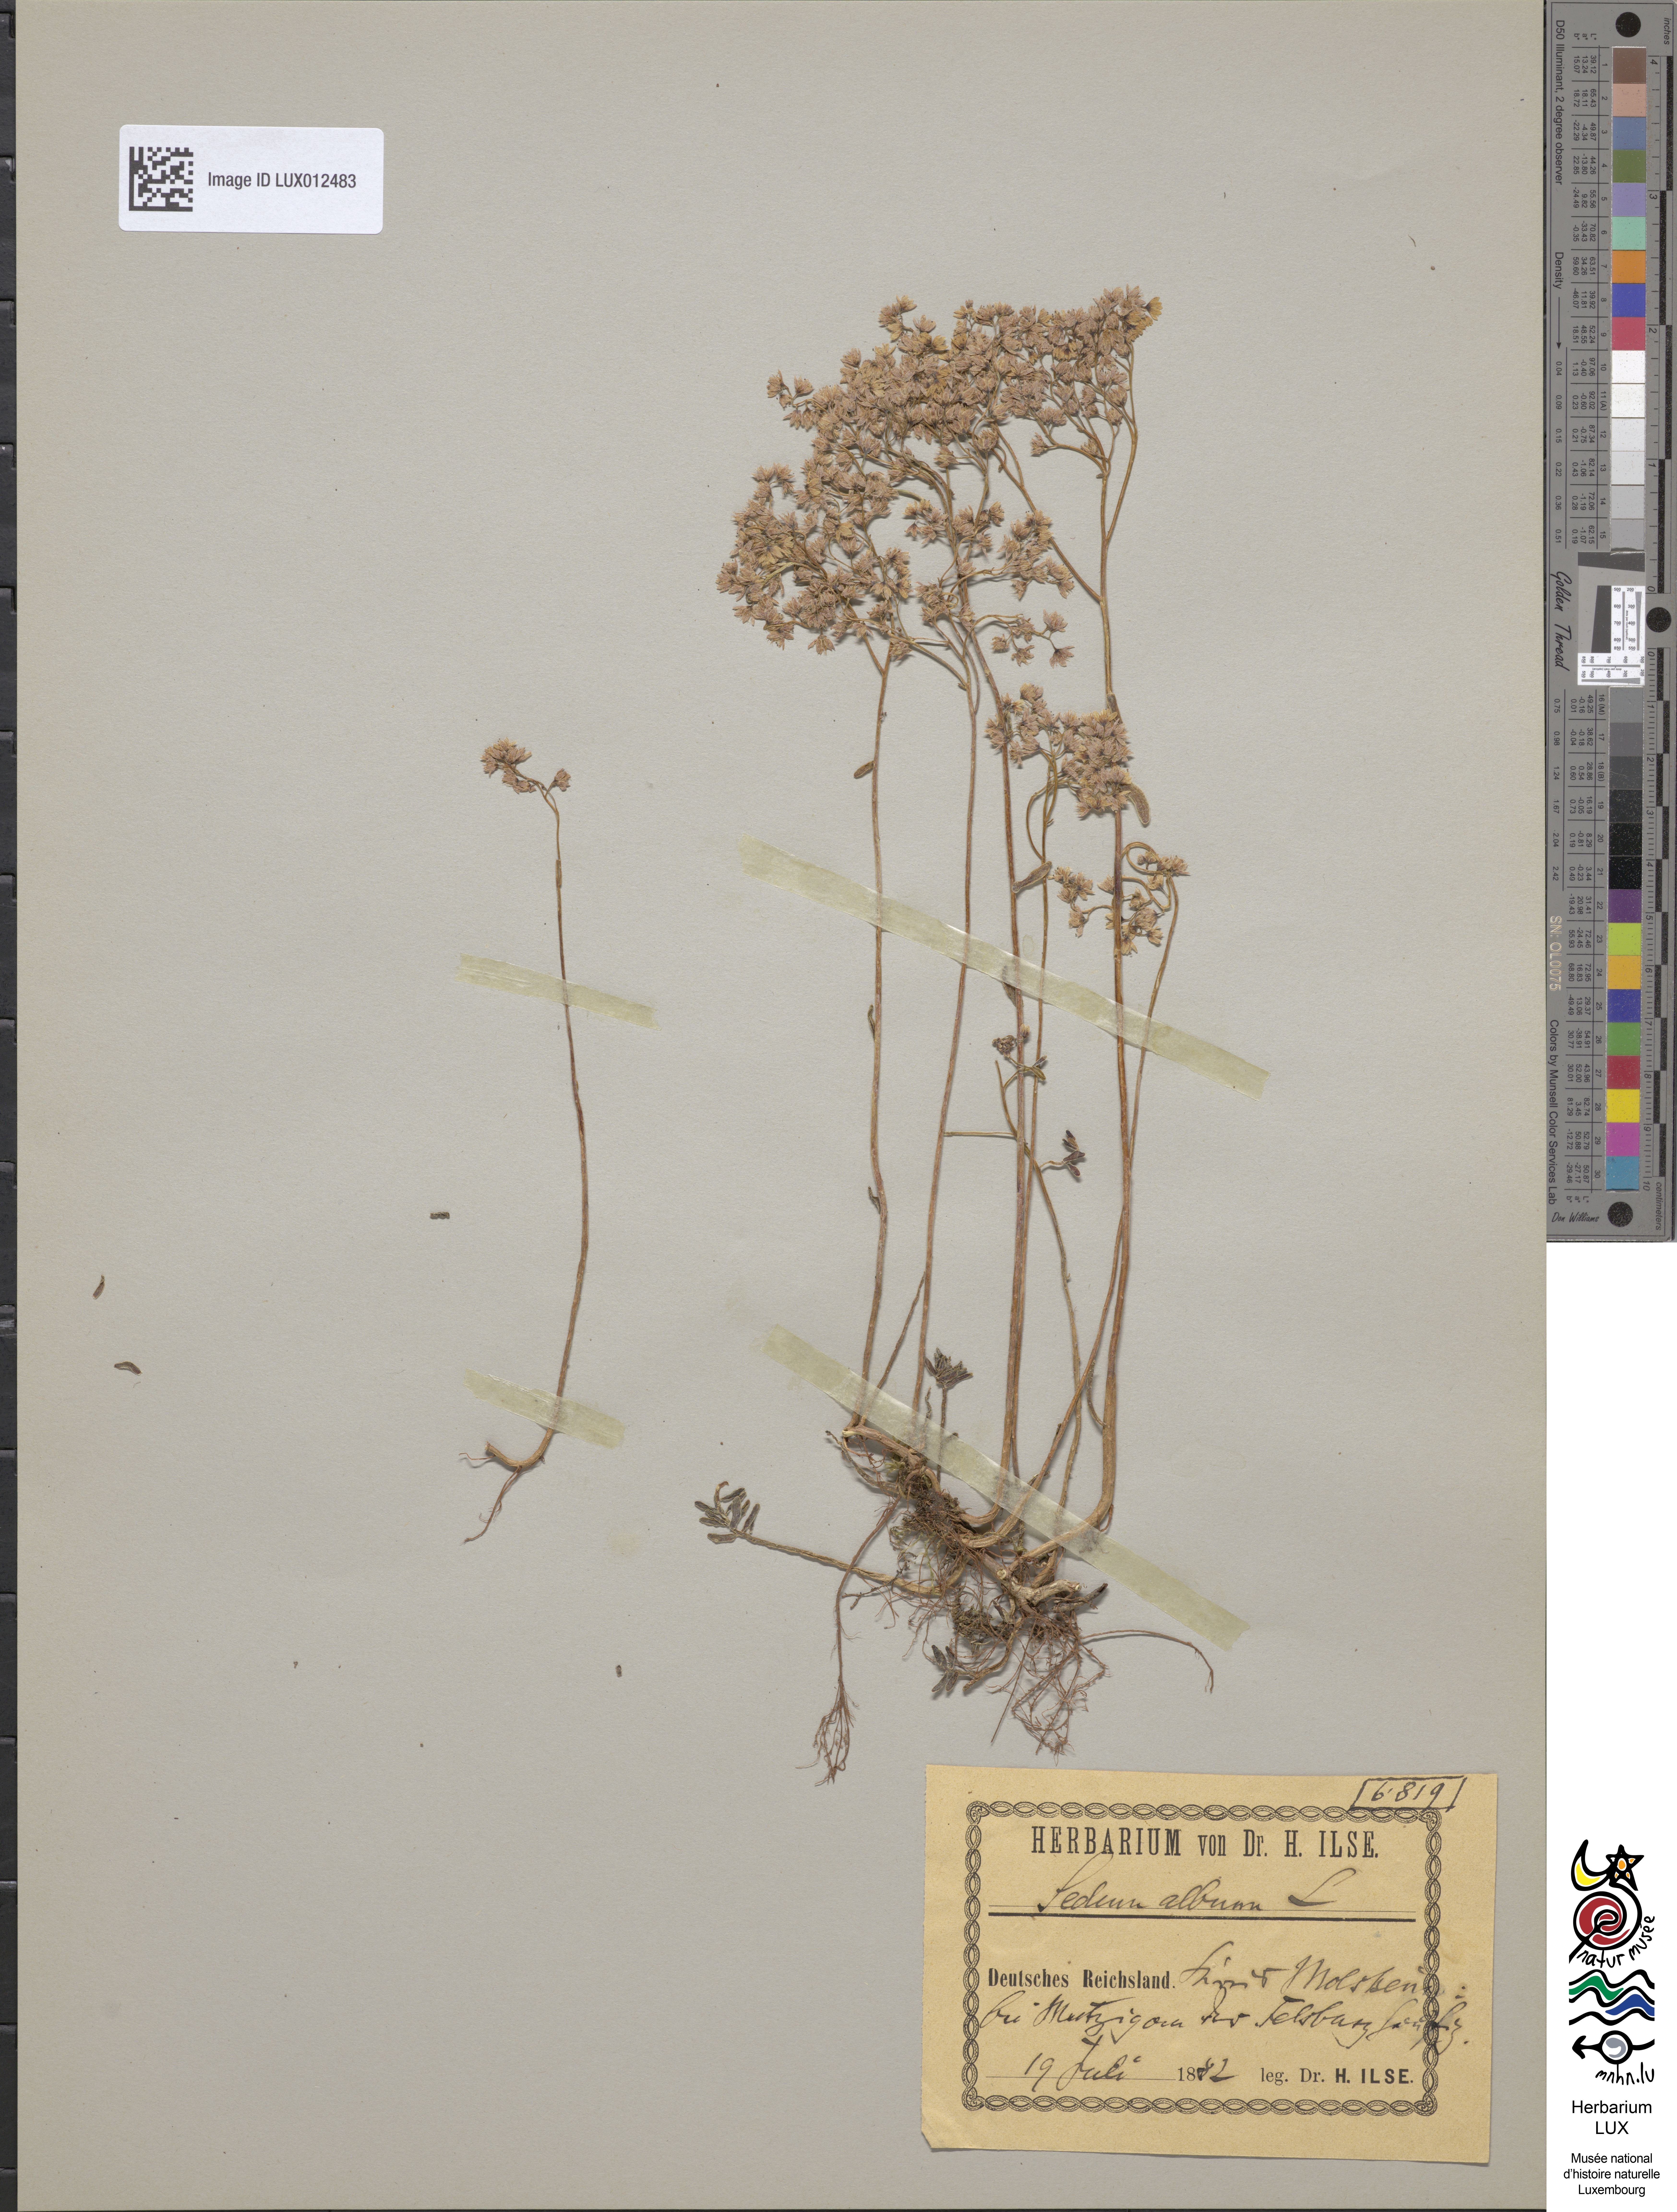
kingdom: Plantae
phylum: Tracheophyta
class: Magnoliopsida
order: Saxifragales
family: Crassulaceae
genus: Sedum
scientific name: Sedum album
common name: White stonecrop
